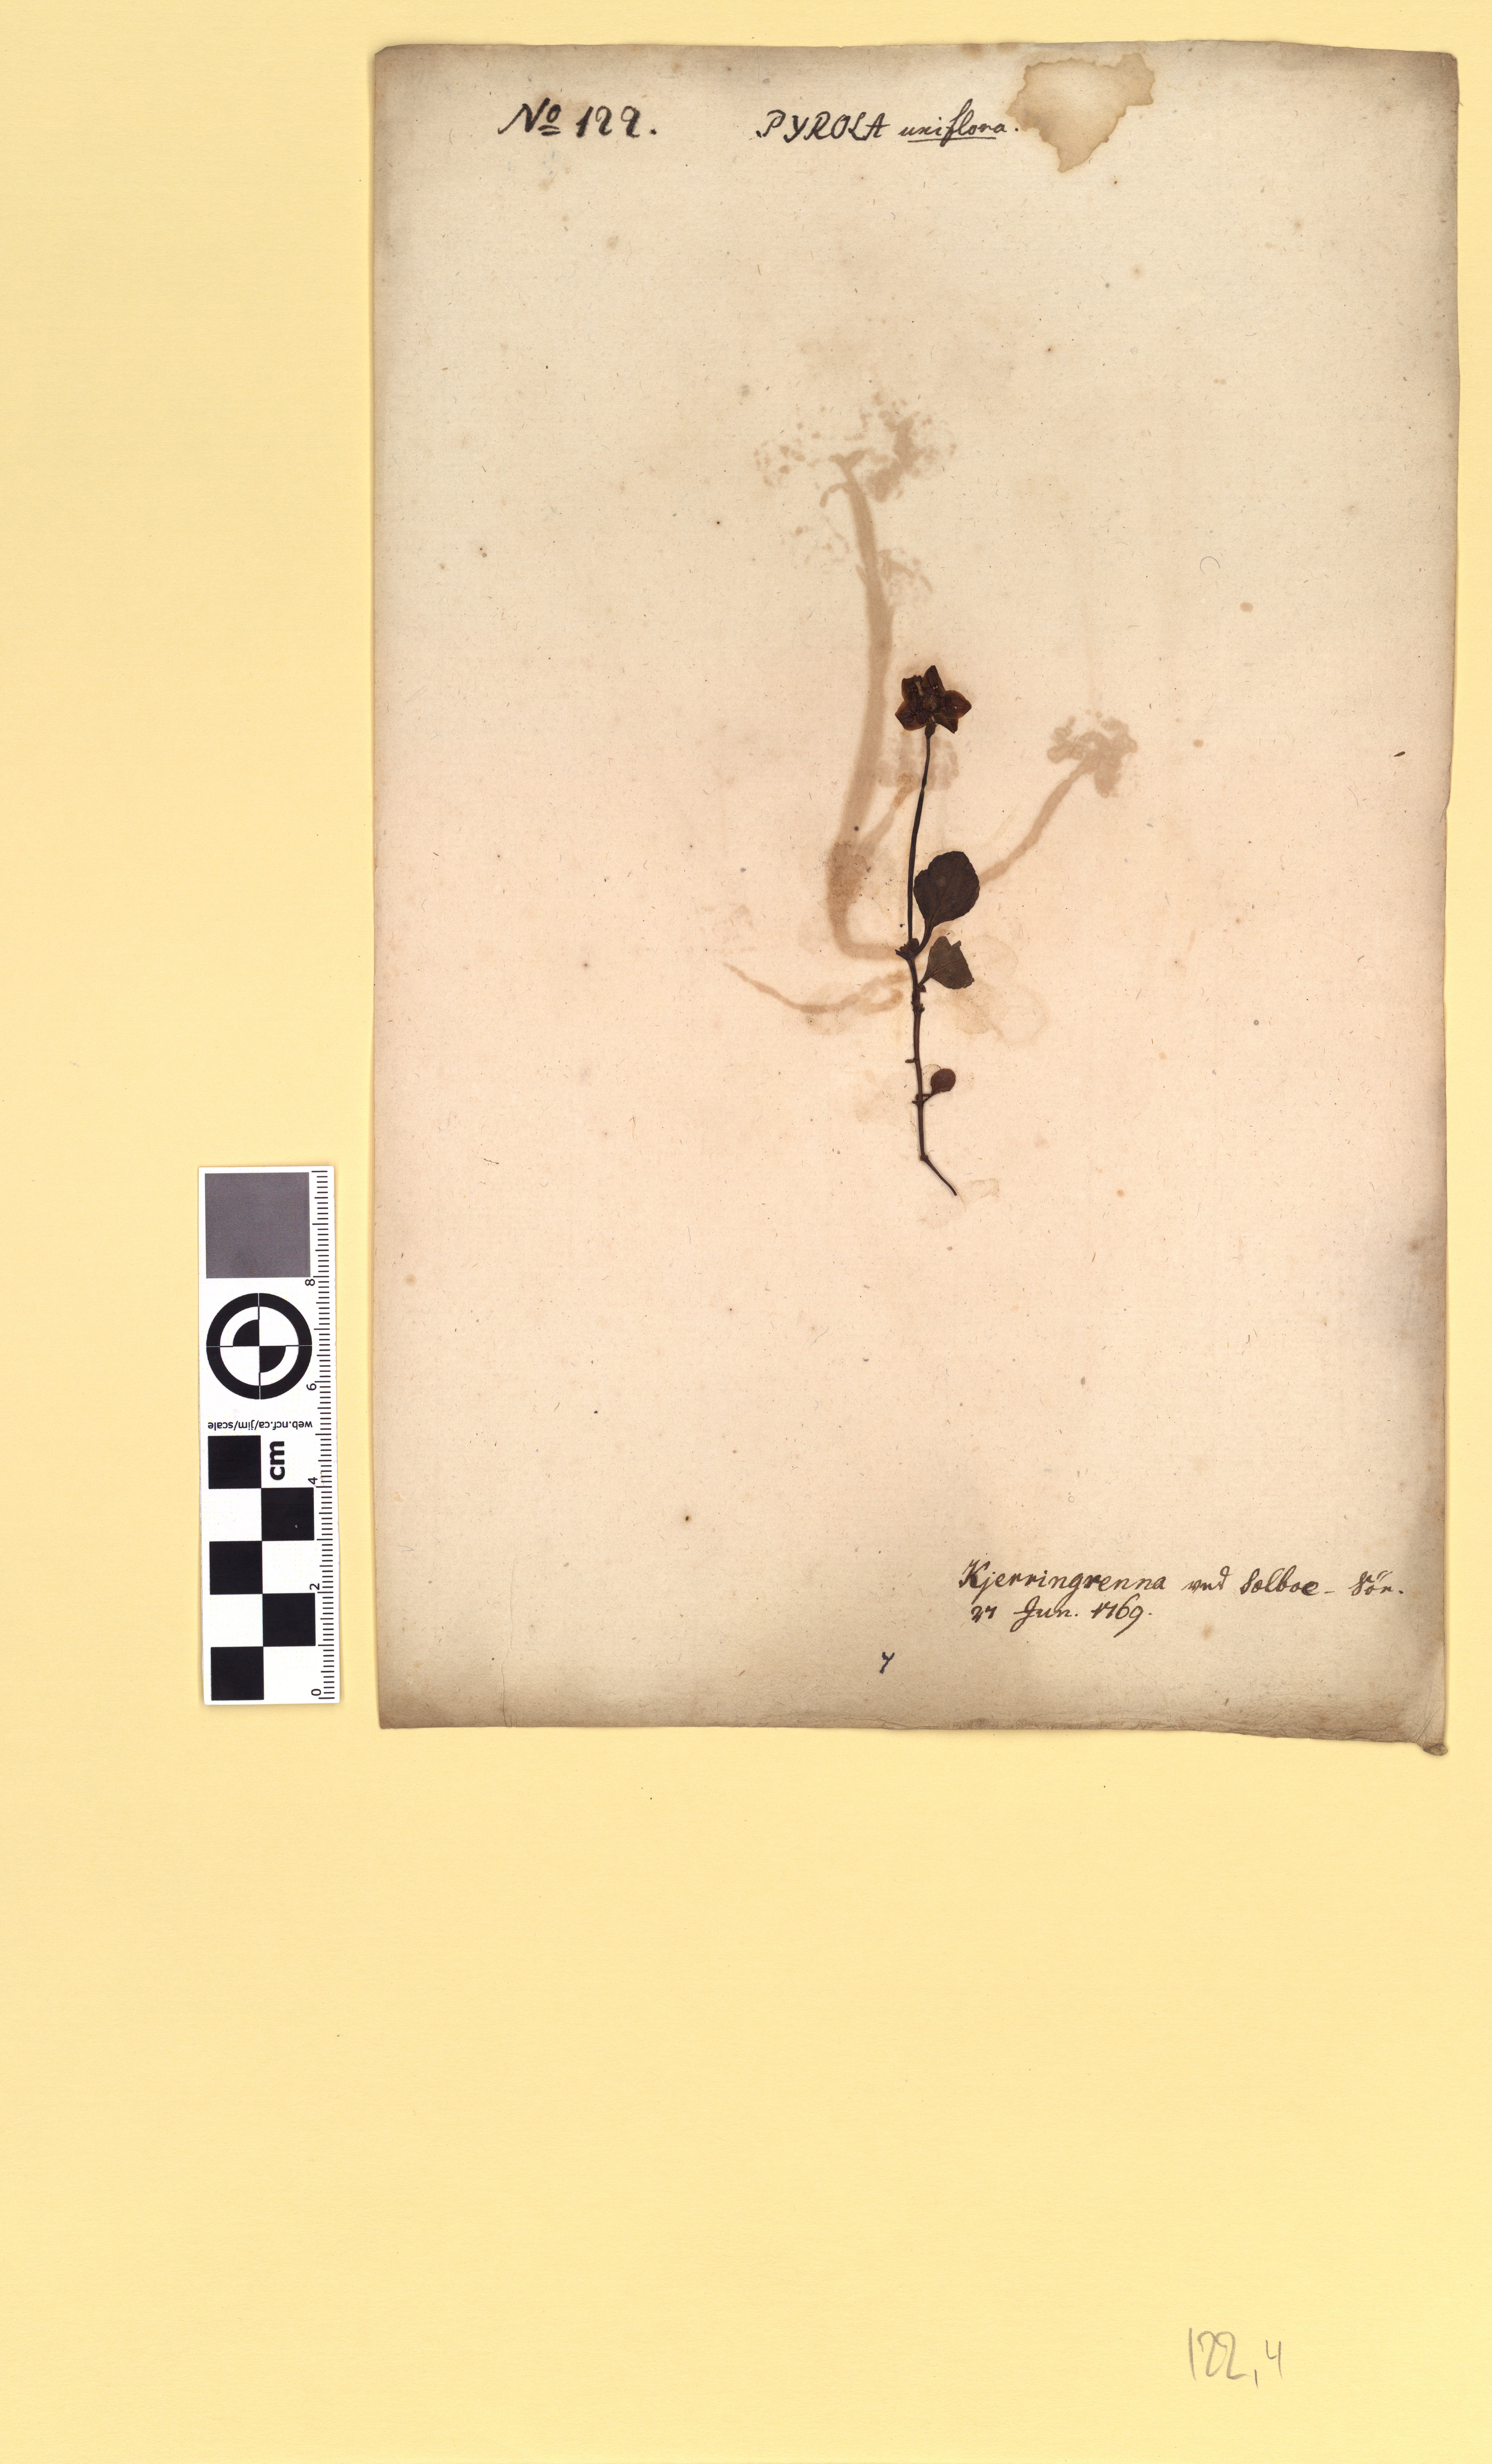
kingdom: Plantae
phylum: Tracheophyta
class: Magnoliopsida
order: Ericales
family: Ericaceae
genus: Moneses
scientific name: Moneses uniflora
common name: One-flowered wintergreen
